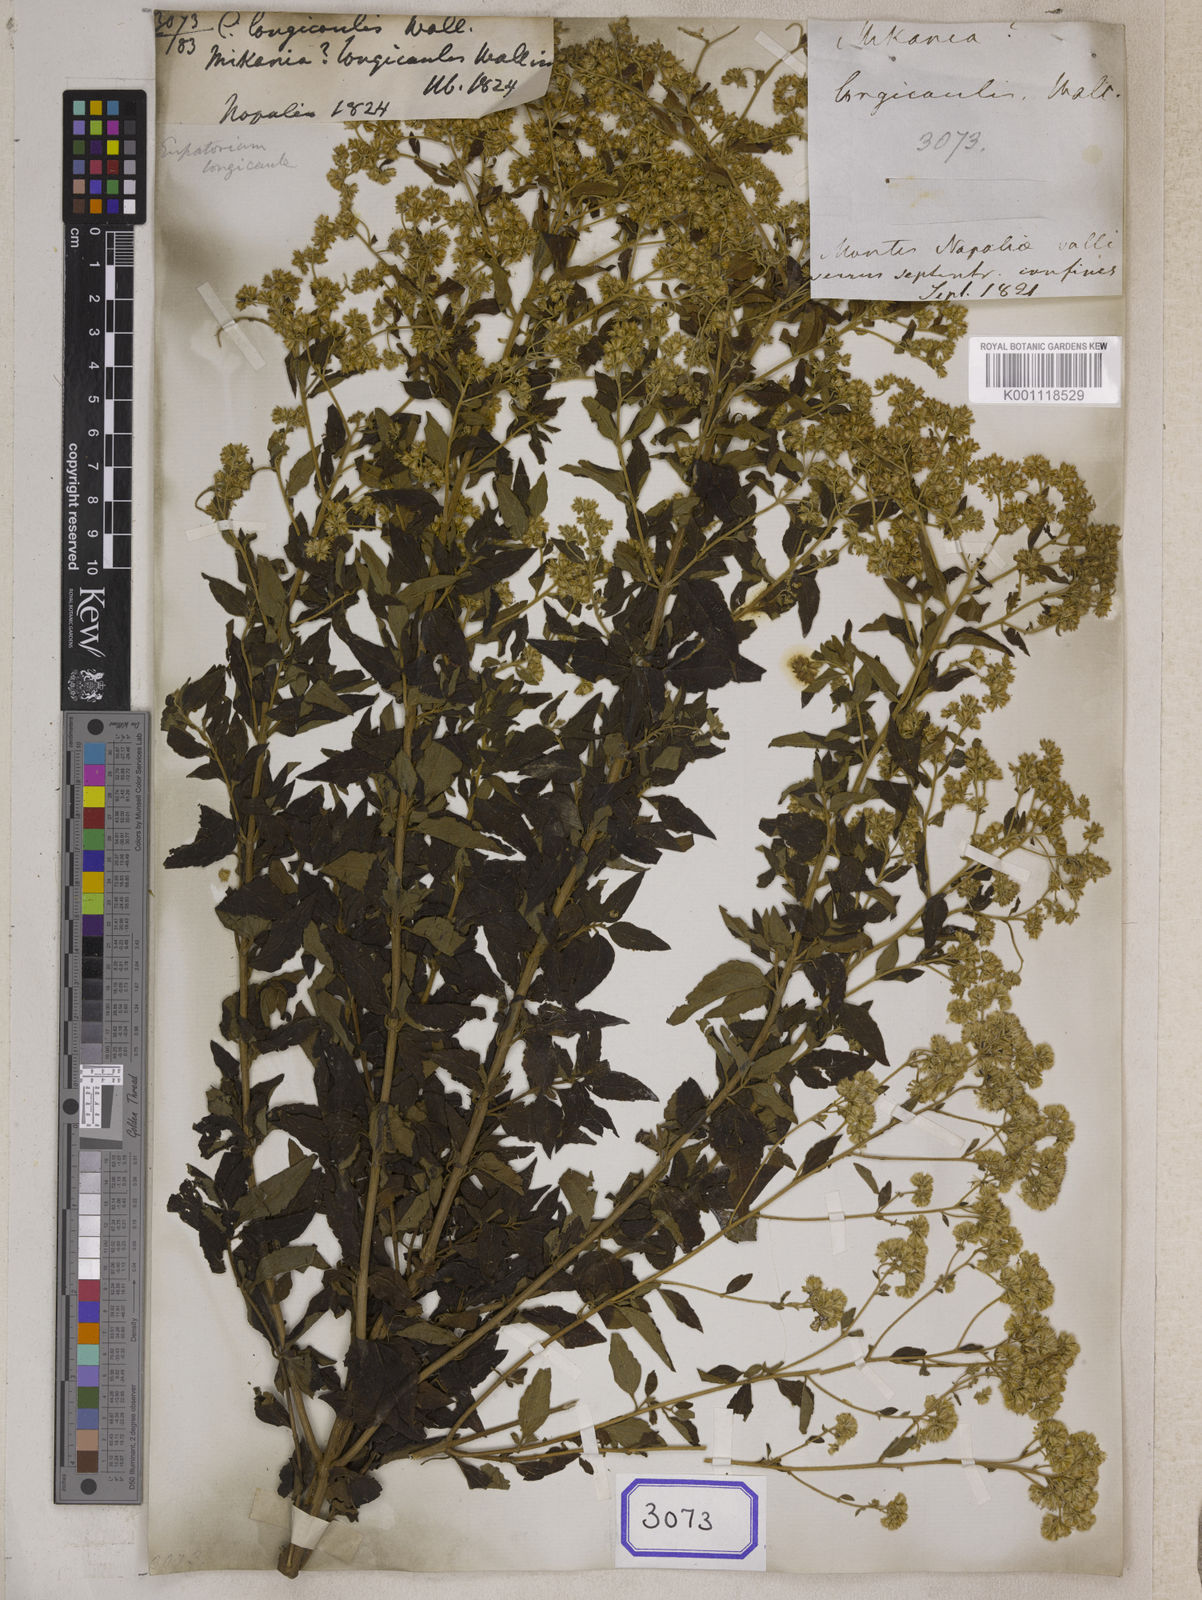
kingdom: Plantae
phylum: Tracheophyta
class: Magnoliopsida
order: Asterales
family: Asteraceae
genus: Erigeron
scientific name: Erigeron Conyza longicaulis
